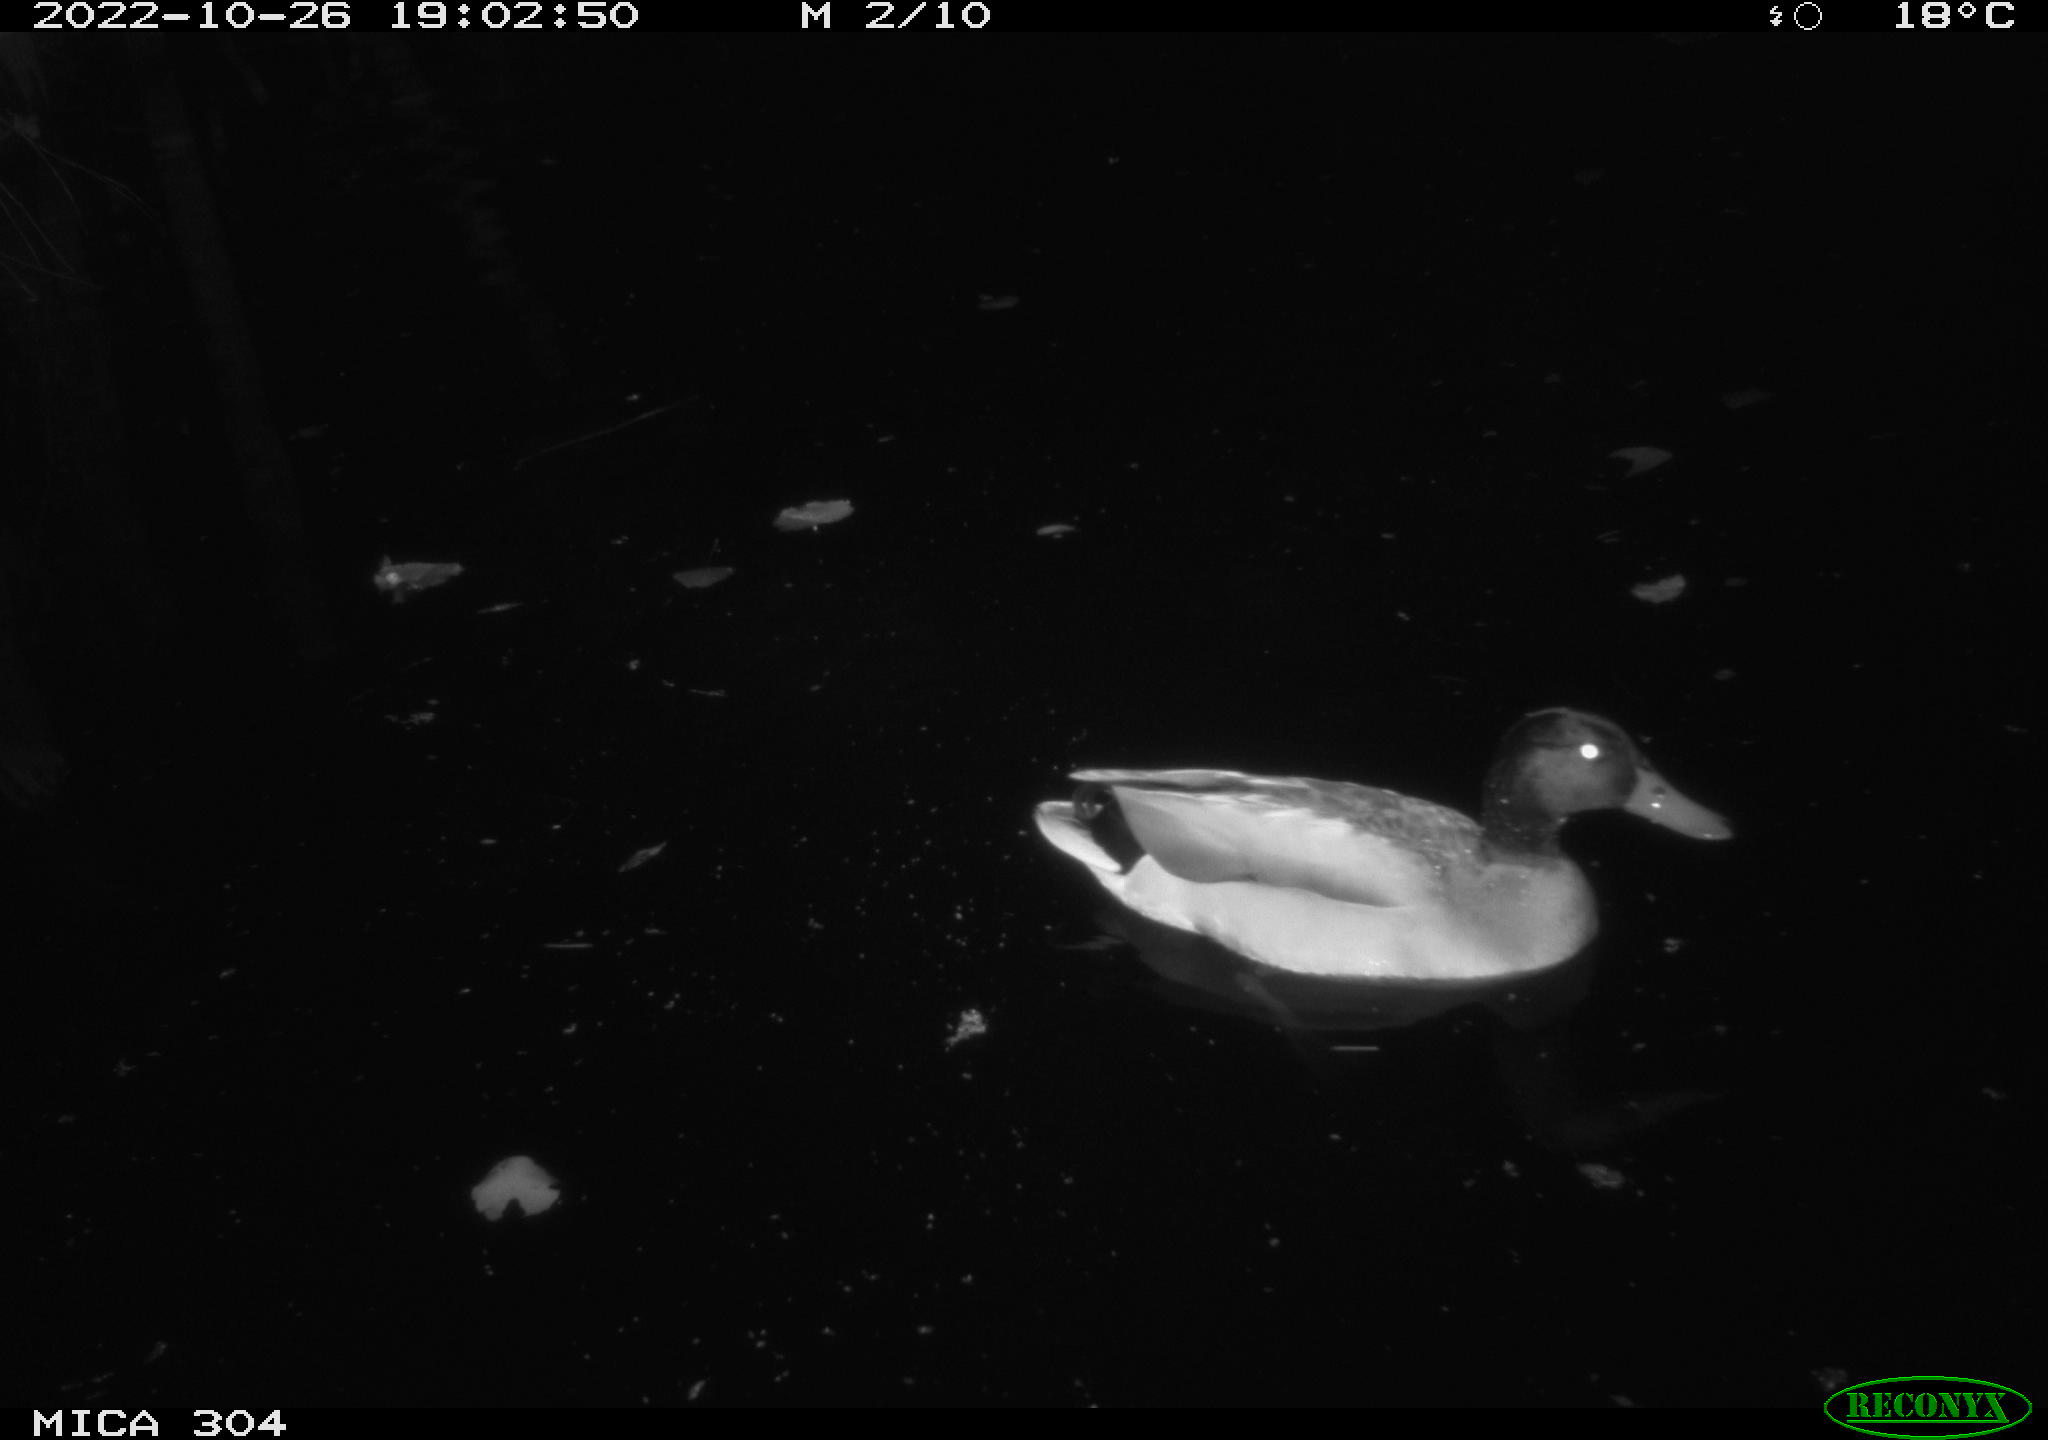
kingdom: Animalia
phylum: Chordata
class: Aves
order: Anseriformes
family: Anatidae
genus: Anas
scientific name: Anas
